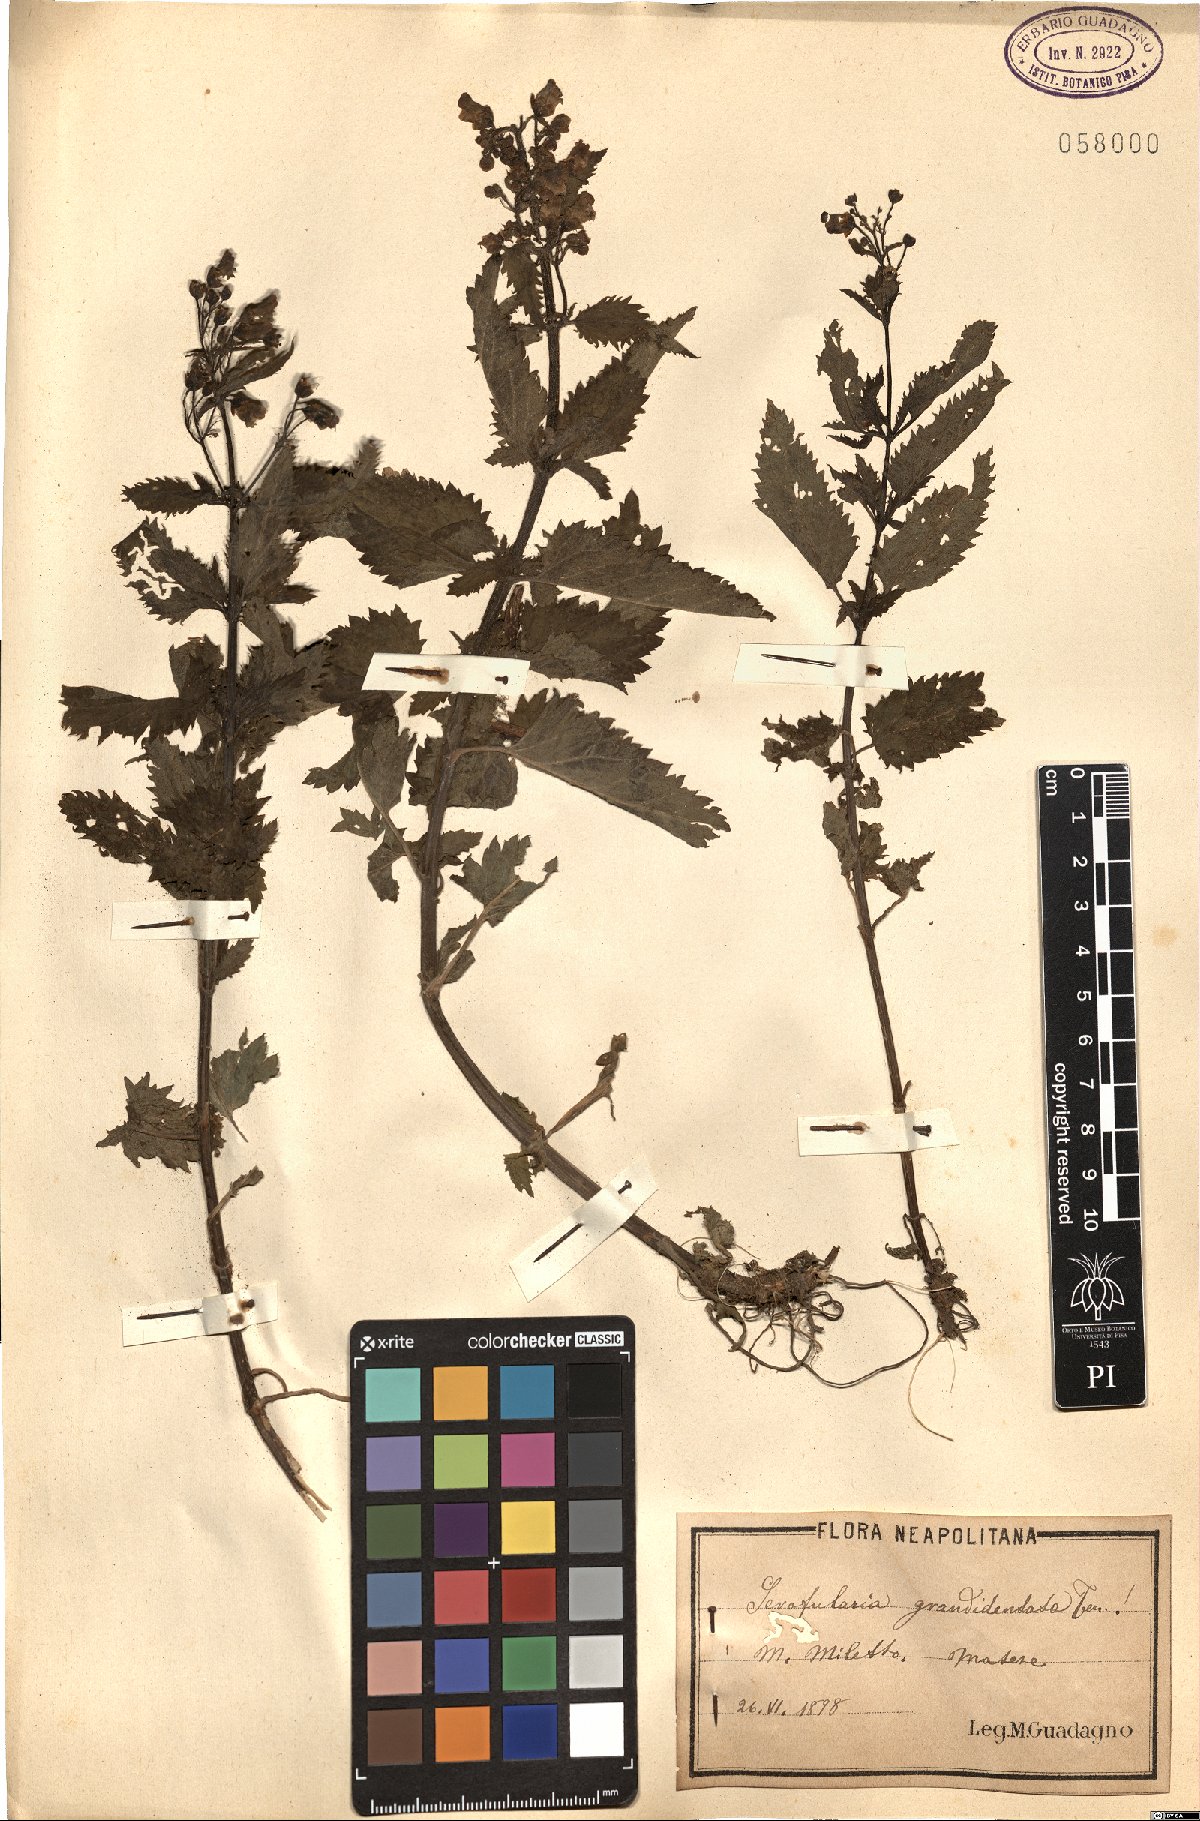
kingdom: Plantae
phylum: Tracheophyta
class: Magnoliopsida
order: Lamiales
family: Scrophulariaceae
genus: Scrophularia
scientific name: Scrophularia scopolii
